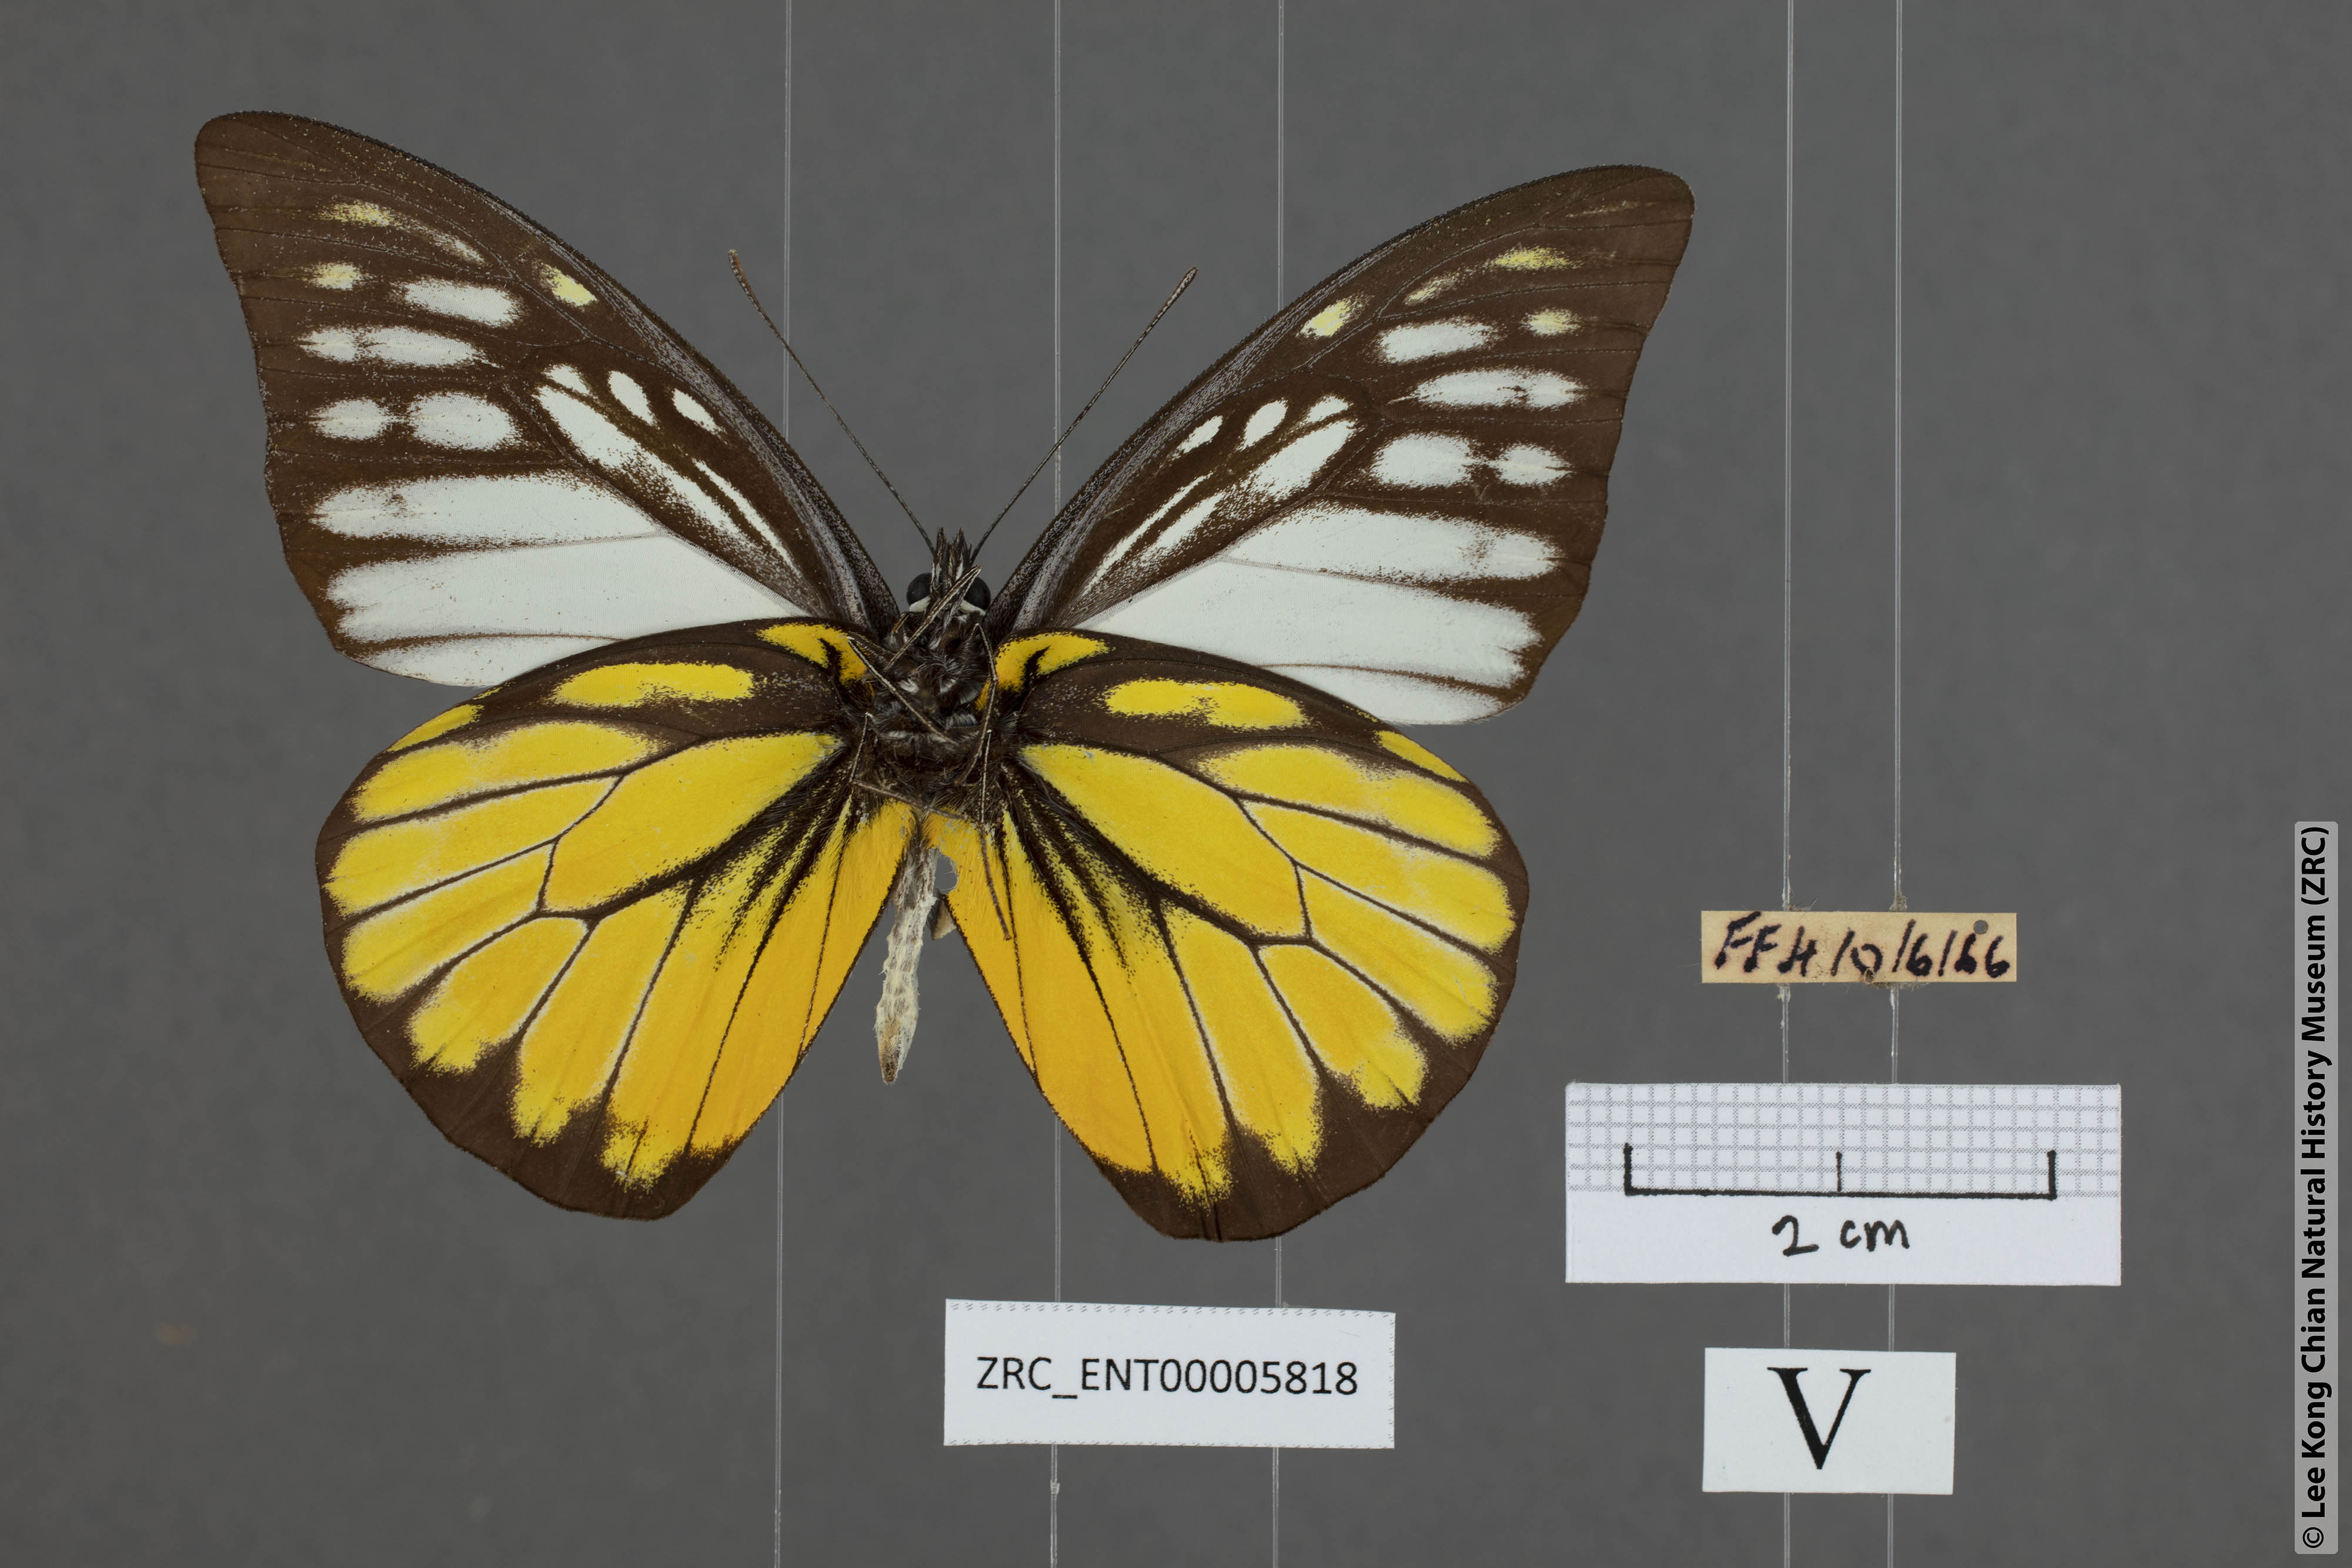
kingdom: Animalia
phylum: Arthropoda
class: Insecta
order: Lepidoptera
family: Pieridae
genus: Prioneris
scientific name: Prioneris thestylis
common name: Spotted sawtooth
